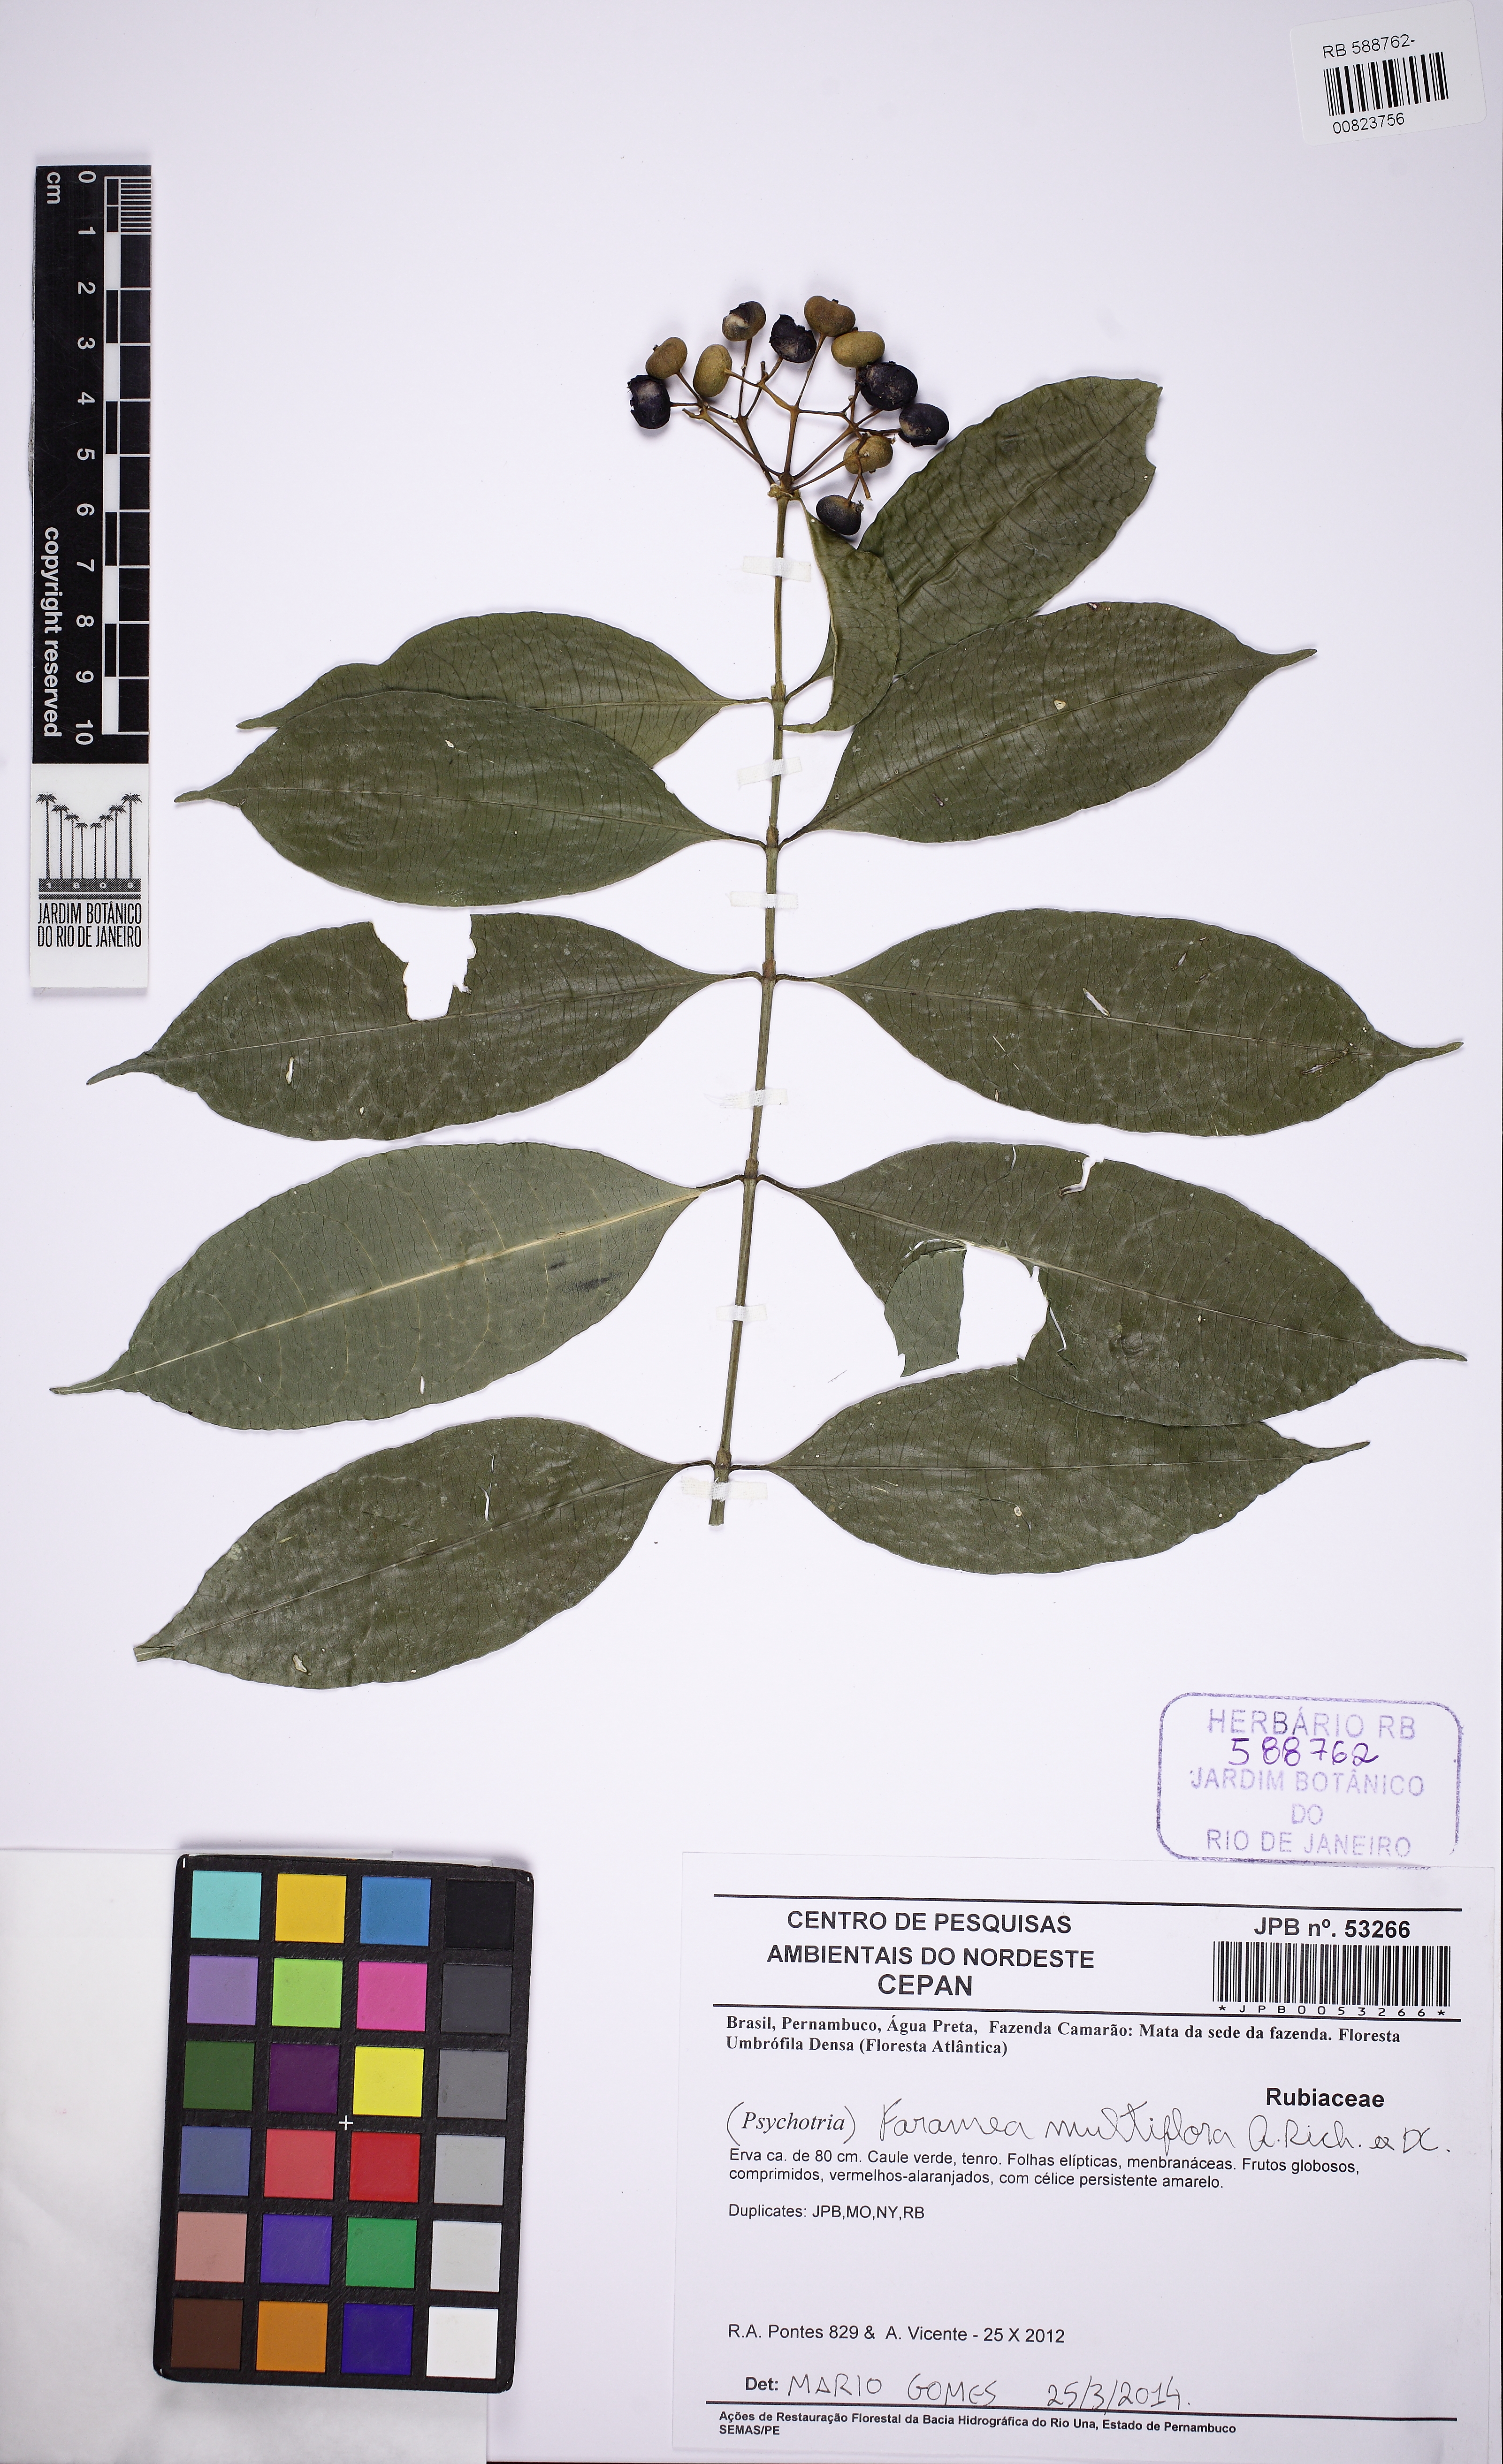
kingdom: Plantae
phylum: Tracheophyta
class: Magnoliopsida
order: Gentianales
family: Rubiaceae
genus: Faramea
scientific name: Faramea multiflora
